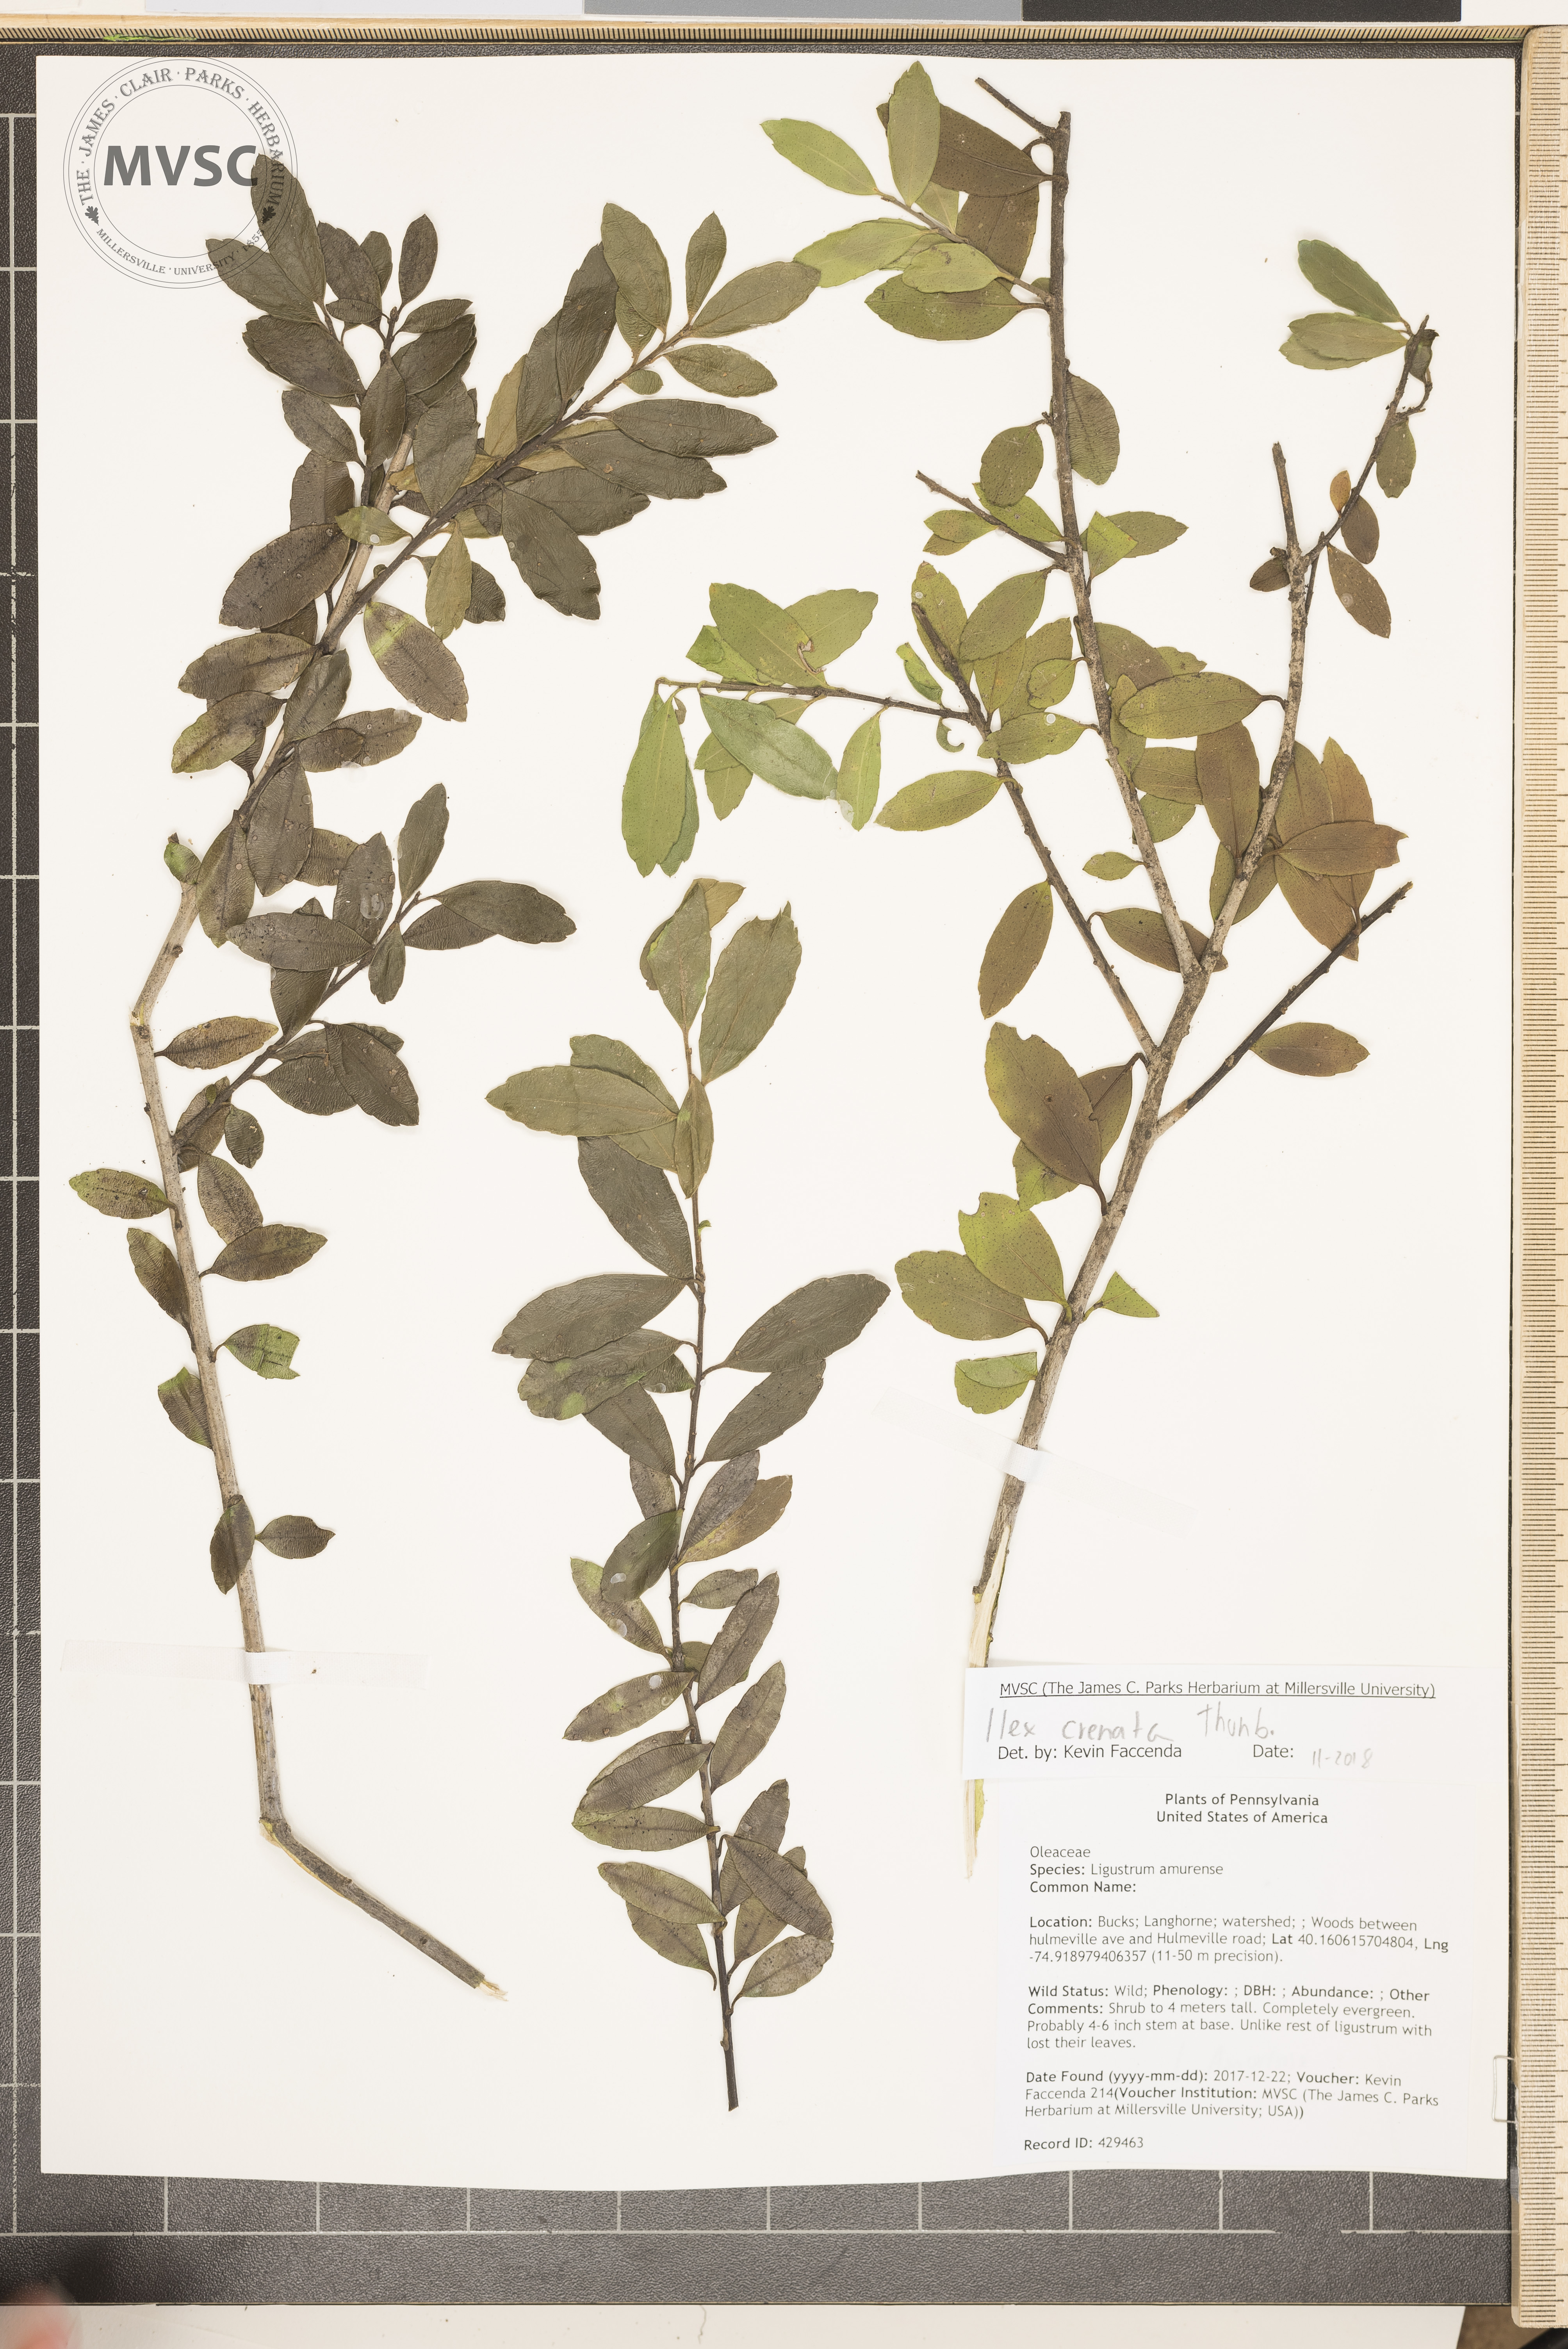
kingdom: Plantae
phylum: Tracheophyta
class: Magnoliopsida
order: Aquifoliales
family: Aquifoliaceae
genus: Ilex
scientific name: Ilex crenata
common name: Japanese holly
